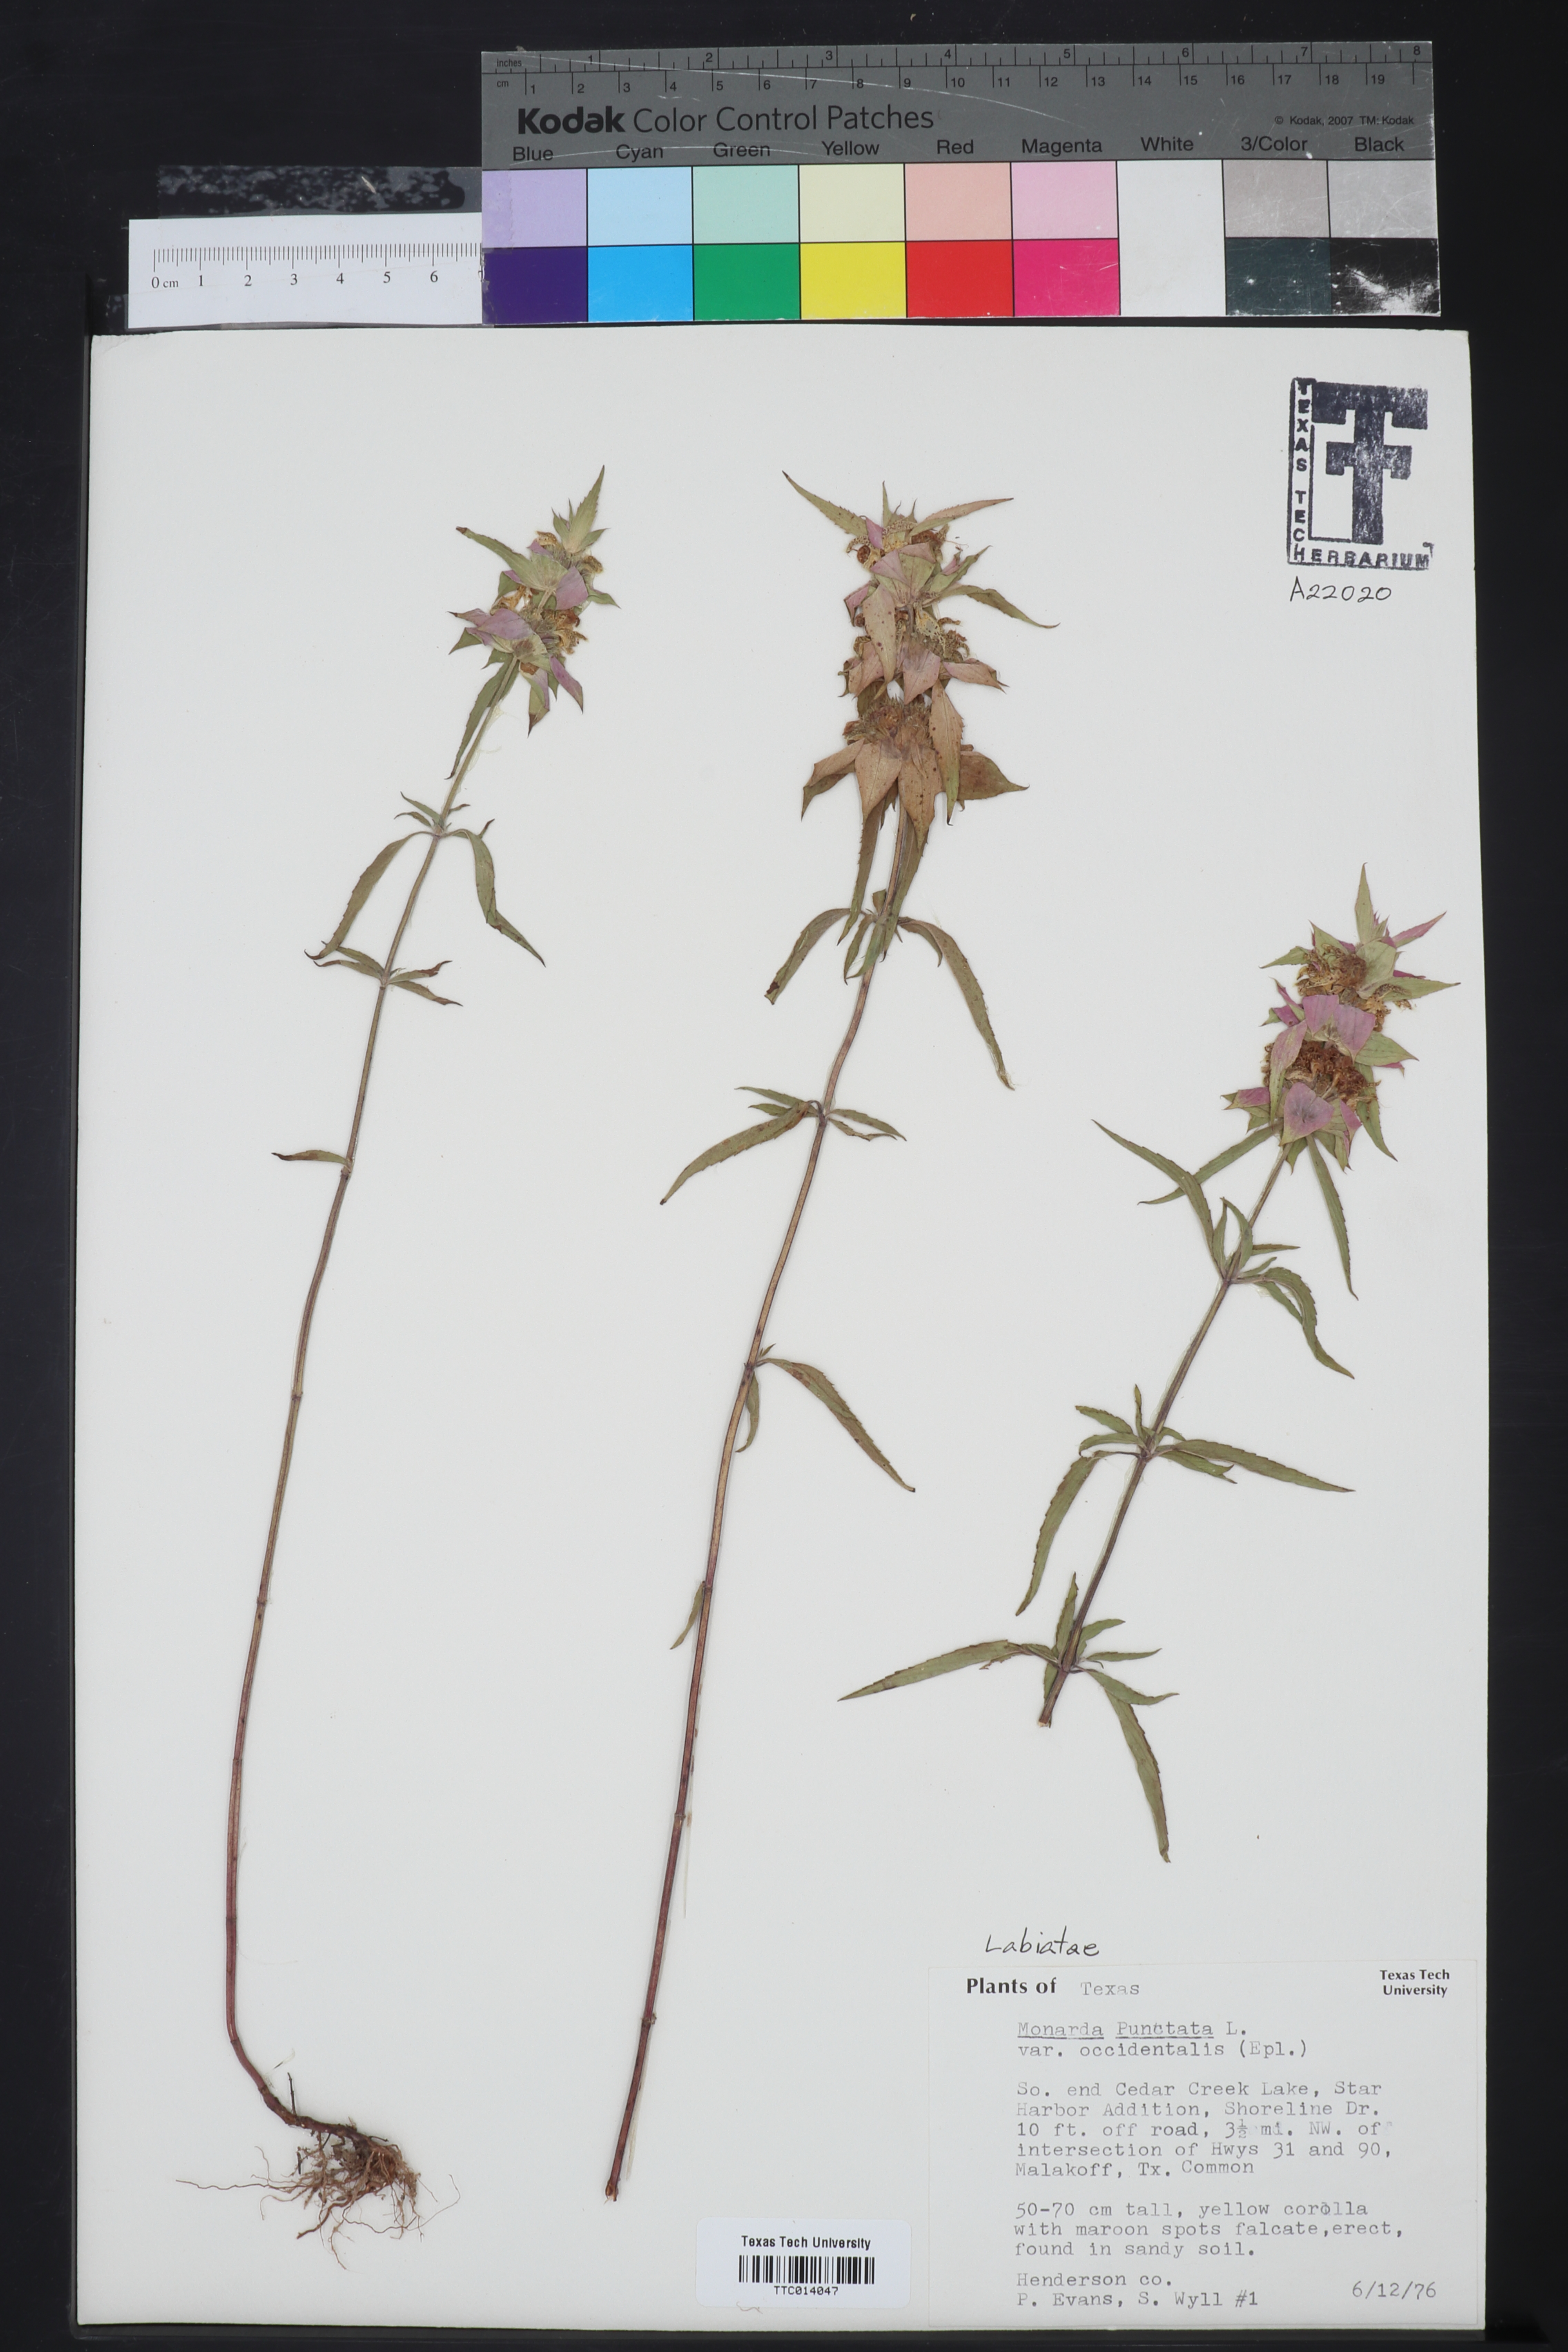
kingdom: Plantae
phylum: Tracheophyta
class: Magnoliopsida
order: Lamiales
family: Lamiaceae
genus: Monarda
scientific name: Monarda punctata
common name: Dotted monarda
